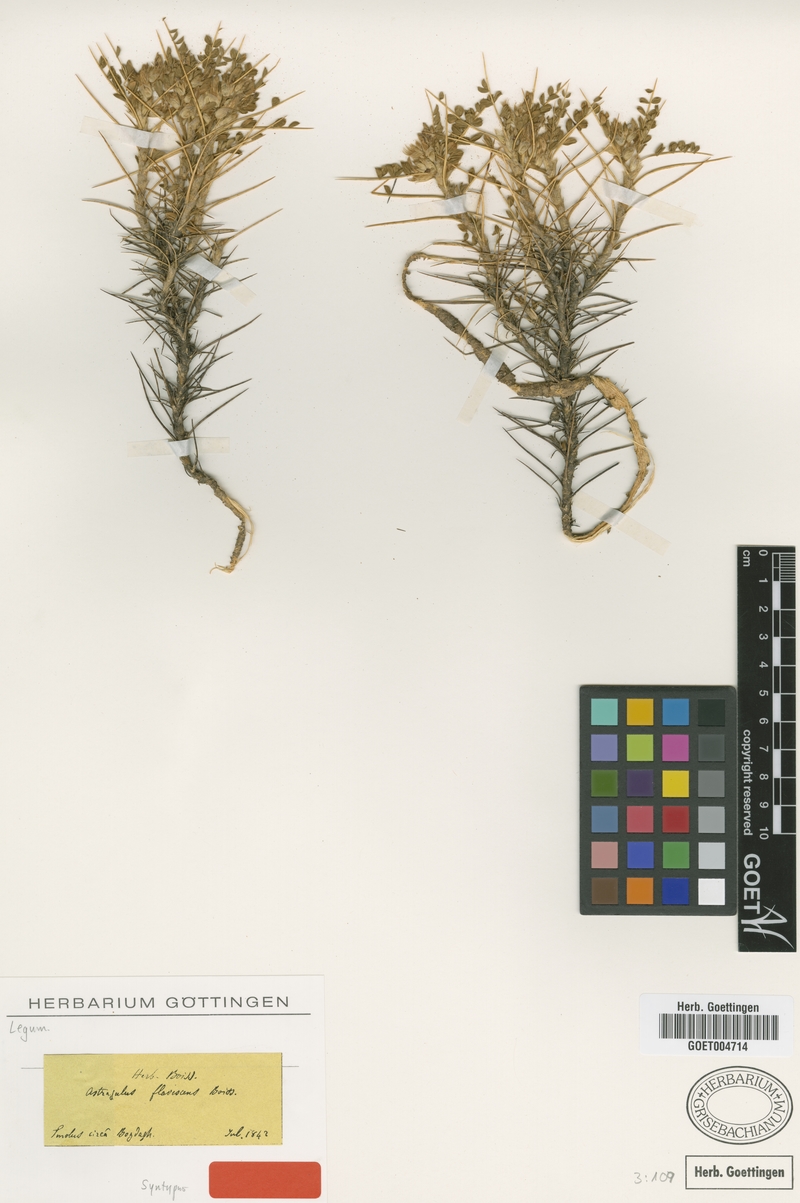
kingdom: Plantae
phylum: Tracheophyta
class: Magnoliopsida
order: Fabales
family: Fabaceae
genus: Astragalus
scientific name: Astragalus flavescens
